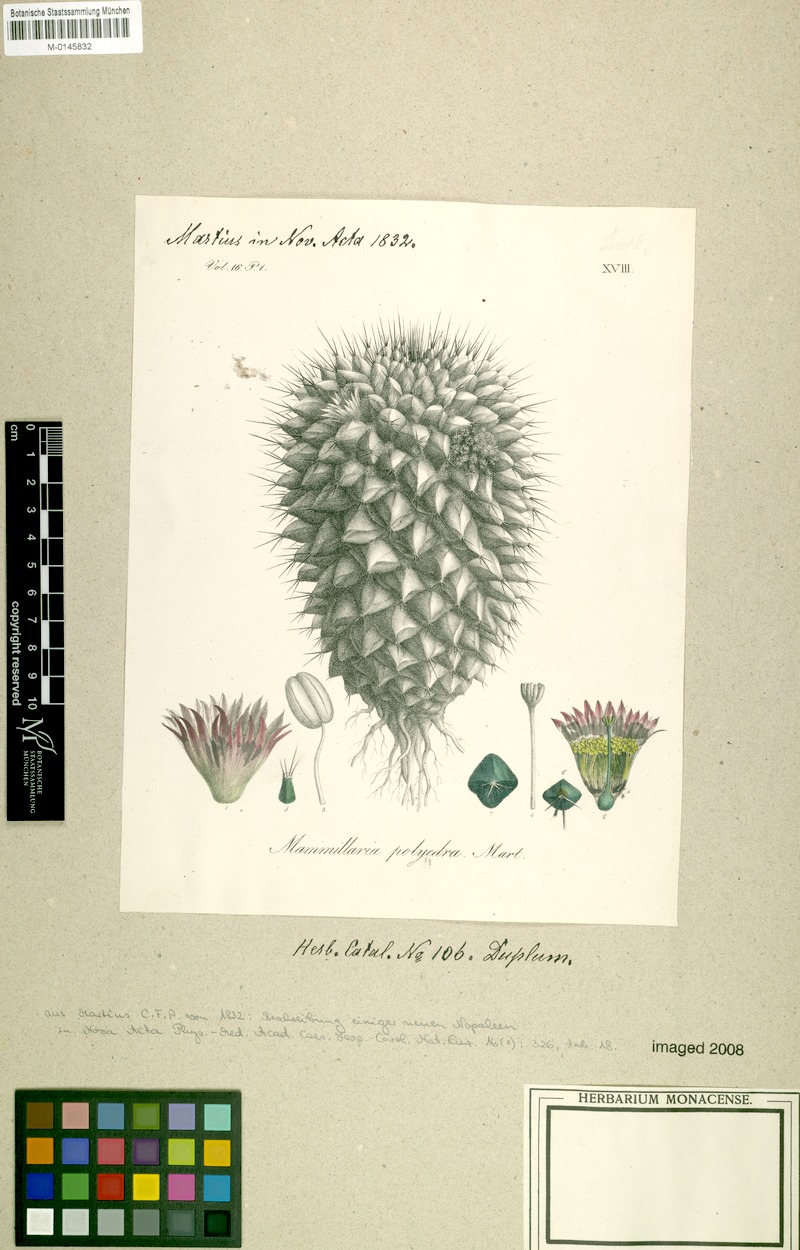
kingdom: Plantae
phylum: Tracheophyta
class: Magnoliopsida
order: Caryophyllales
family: Cactaceae
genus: Mammillaria
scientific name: Mammillaria polyedra
